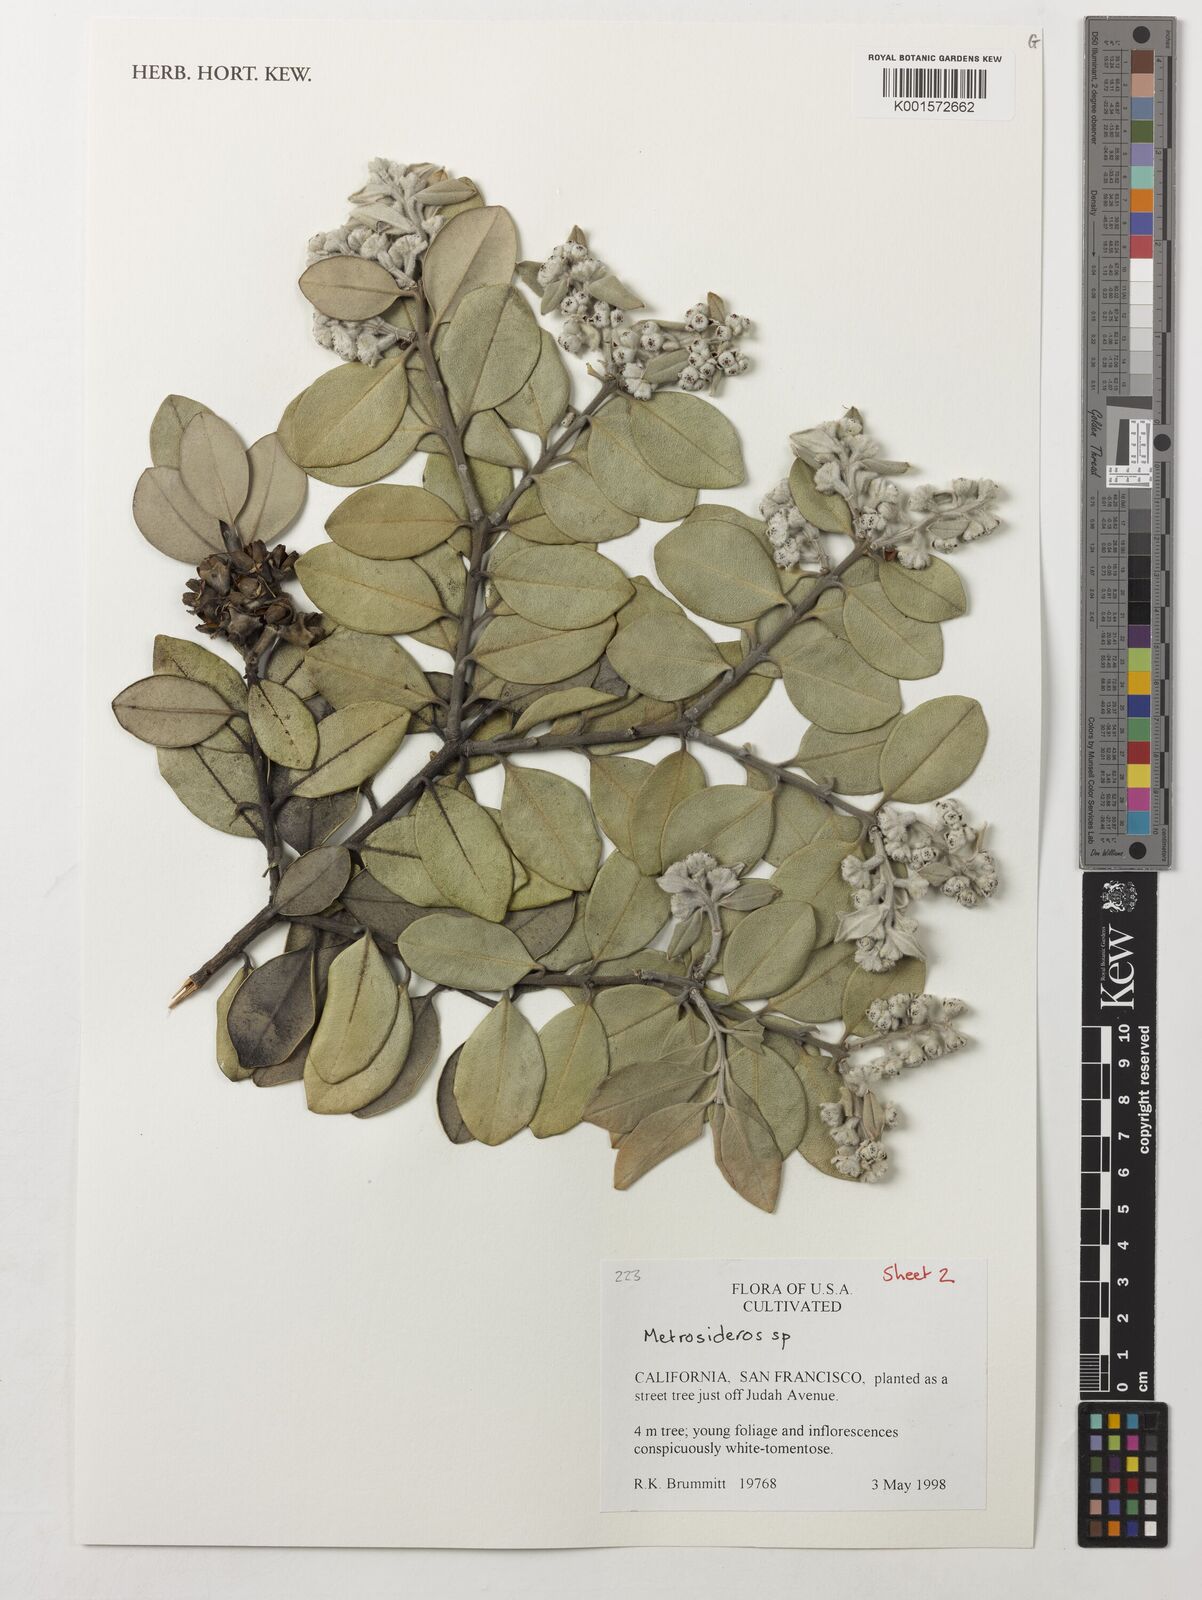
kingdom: Plantae
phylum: Tracheophyta
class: Magnoliopsida
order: Myrtales
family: Myrtaceae
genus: Metrosideros
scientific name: Metrosideros
